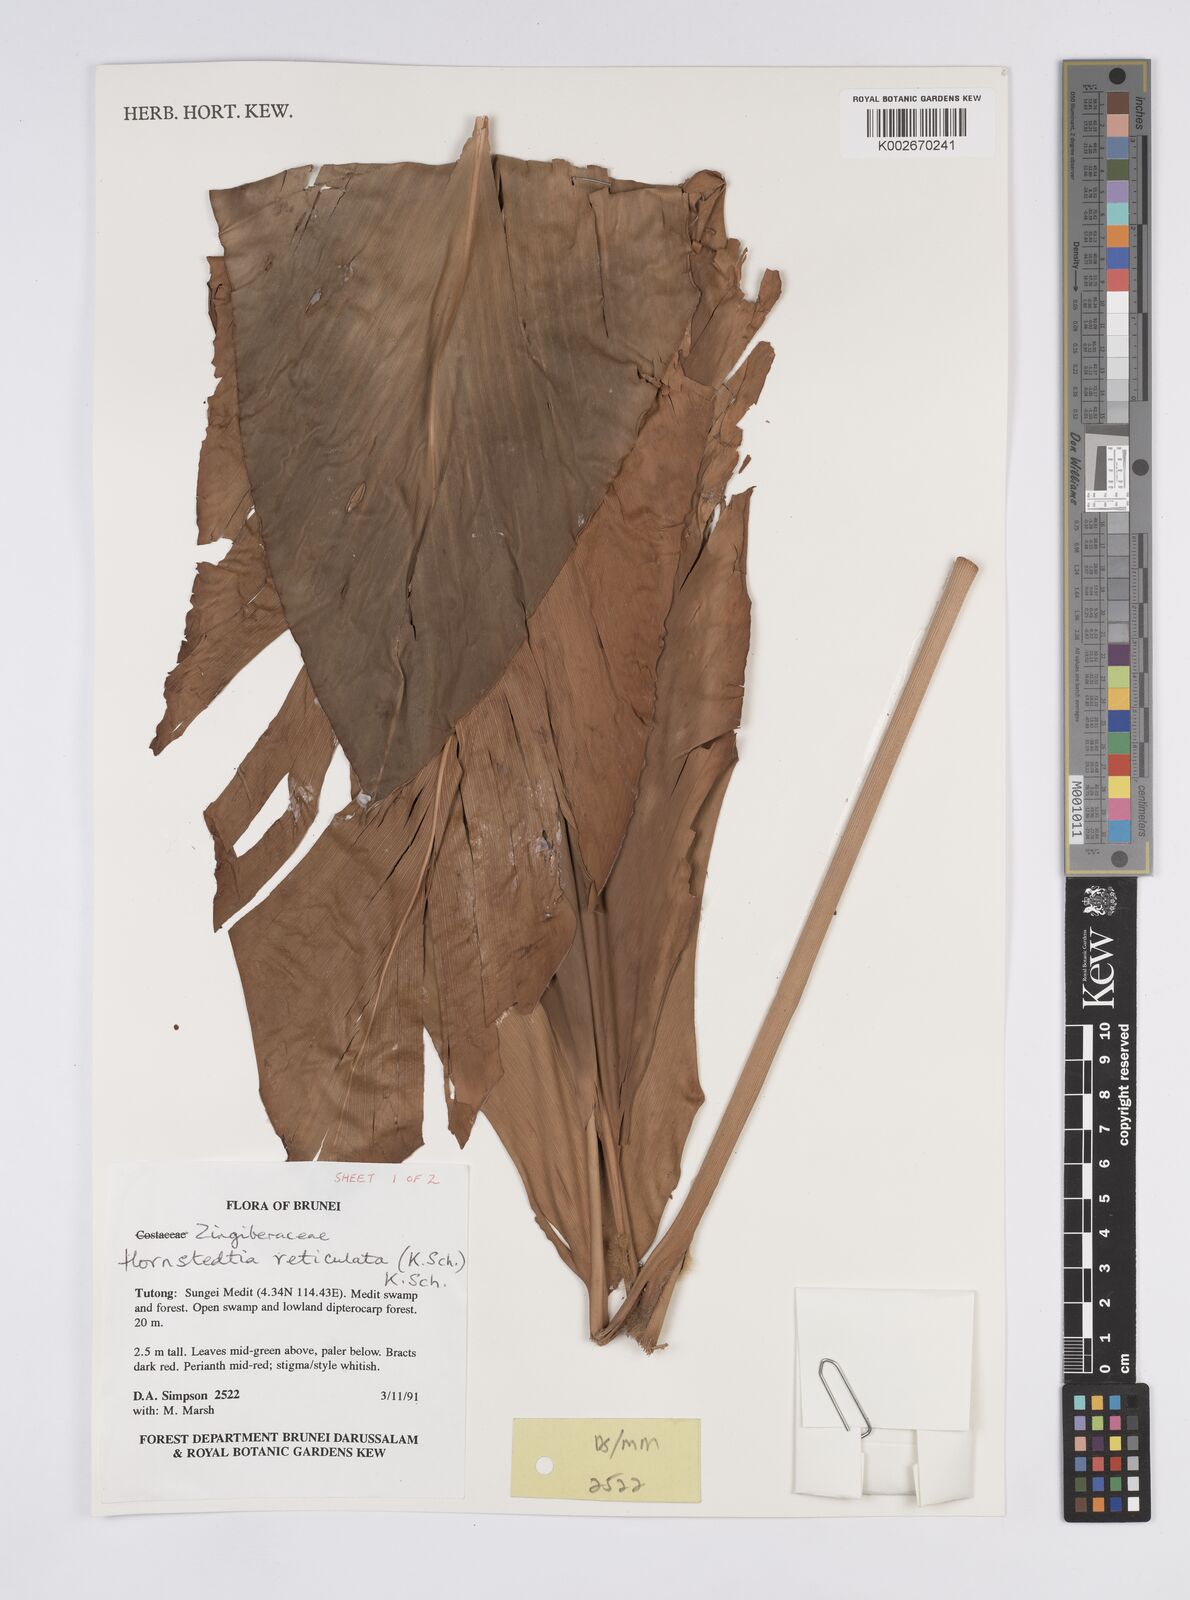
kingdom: Plantae
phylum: Tracheophyta
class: Liliopsida
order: Zingiberales
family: Zingiberaceae
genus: Hornstedtia
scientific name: Hornstedtia reticulata
